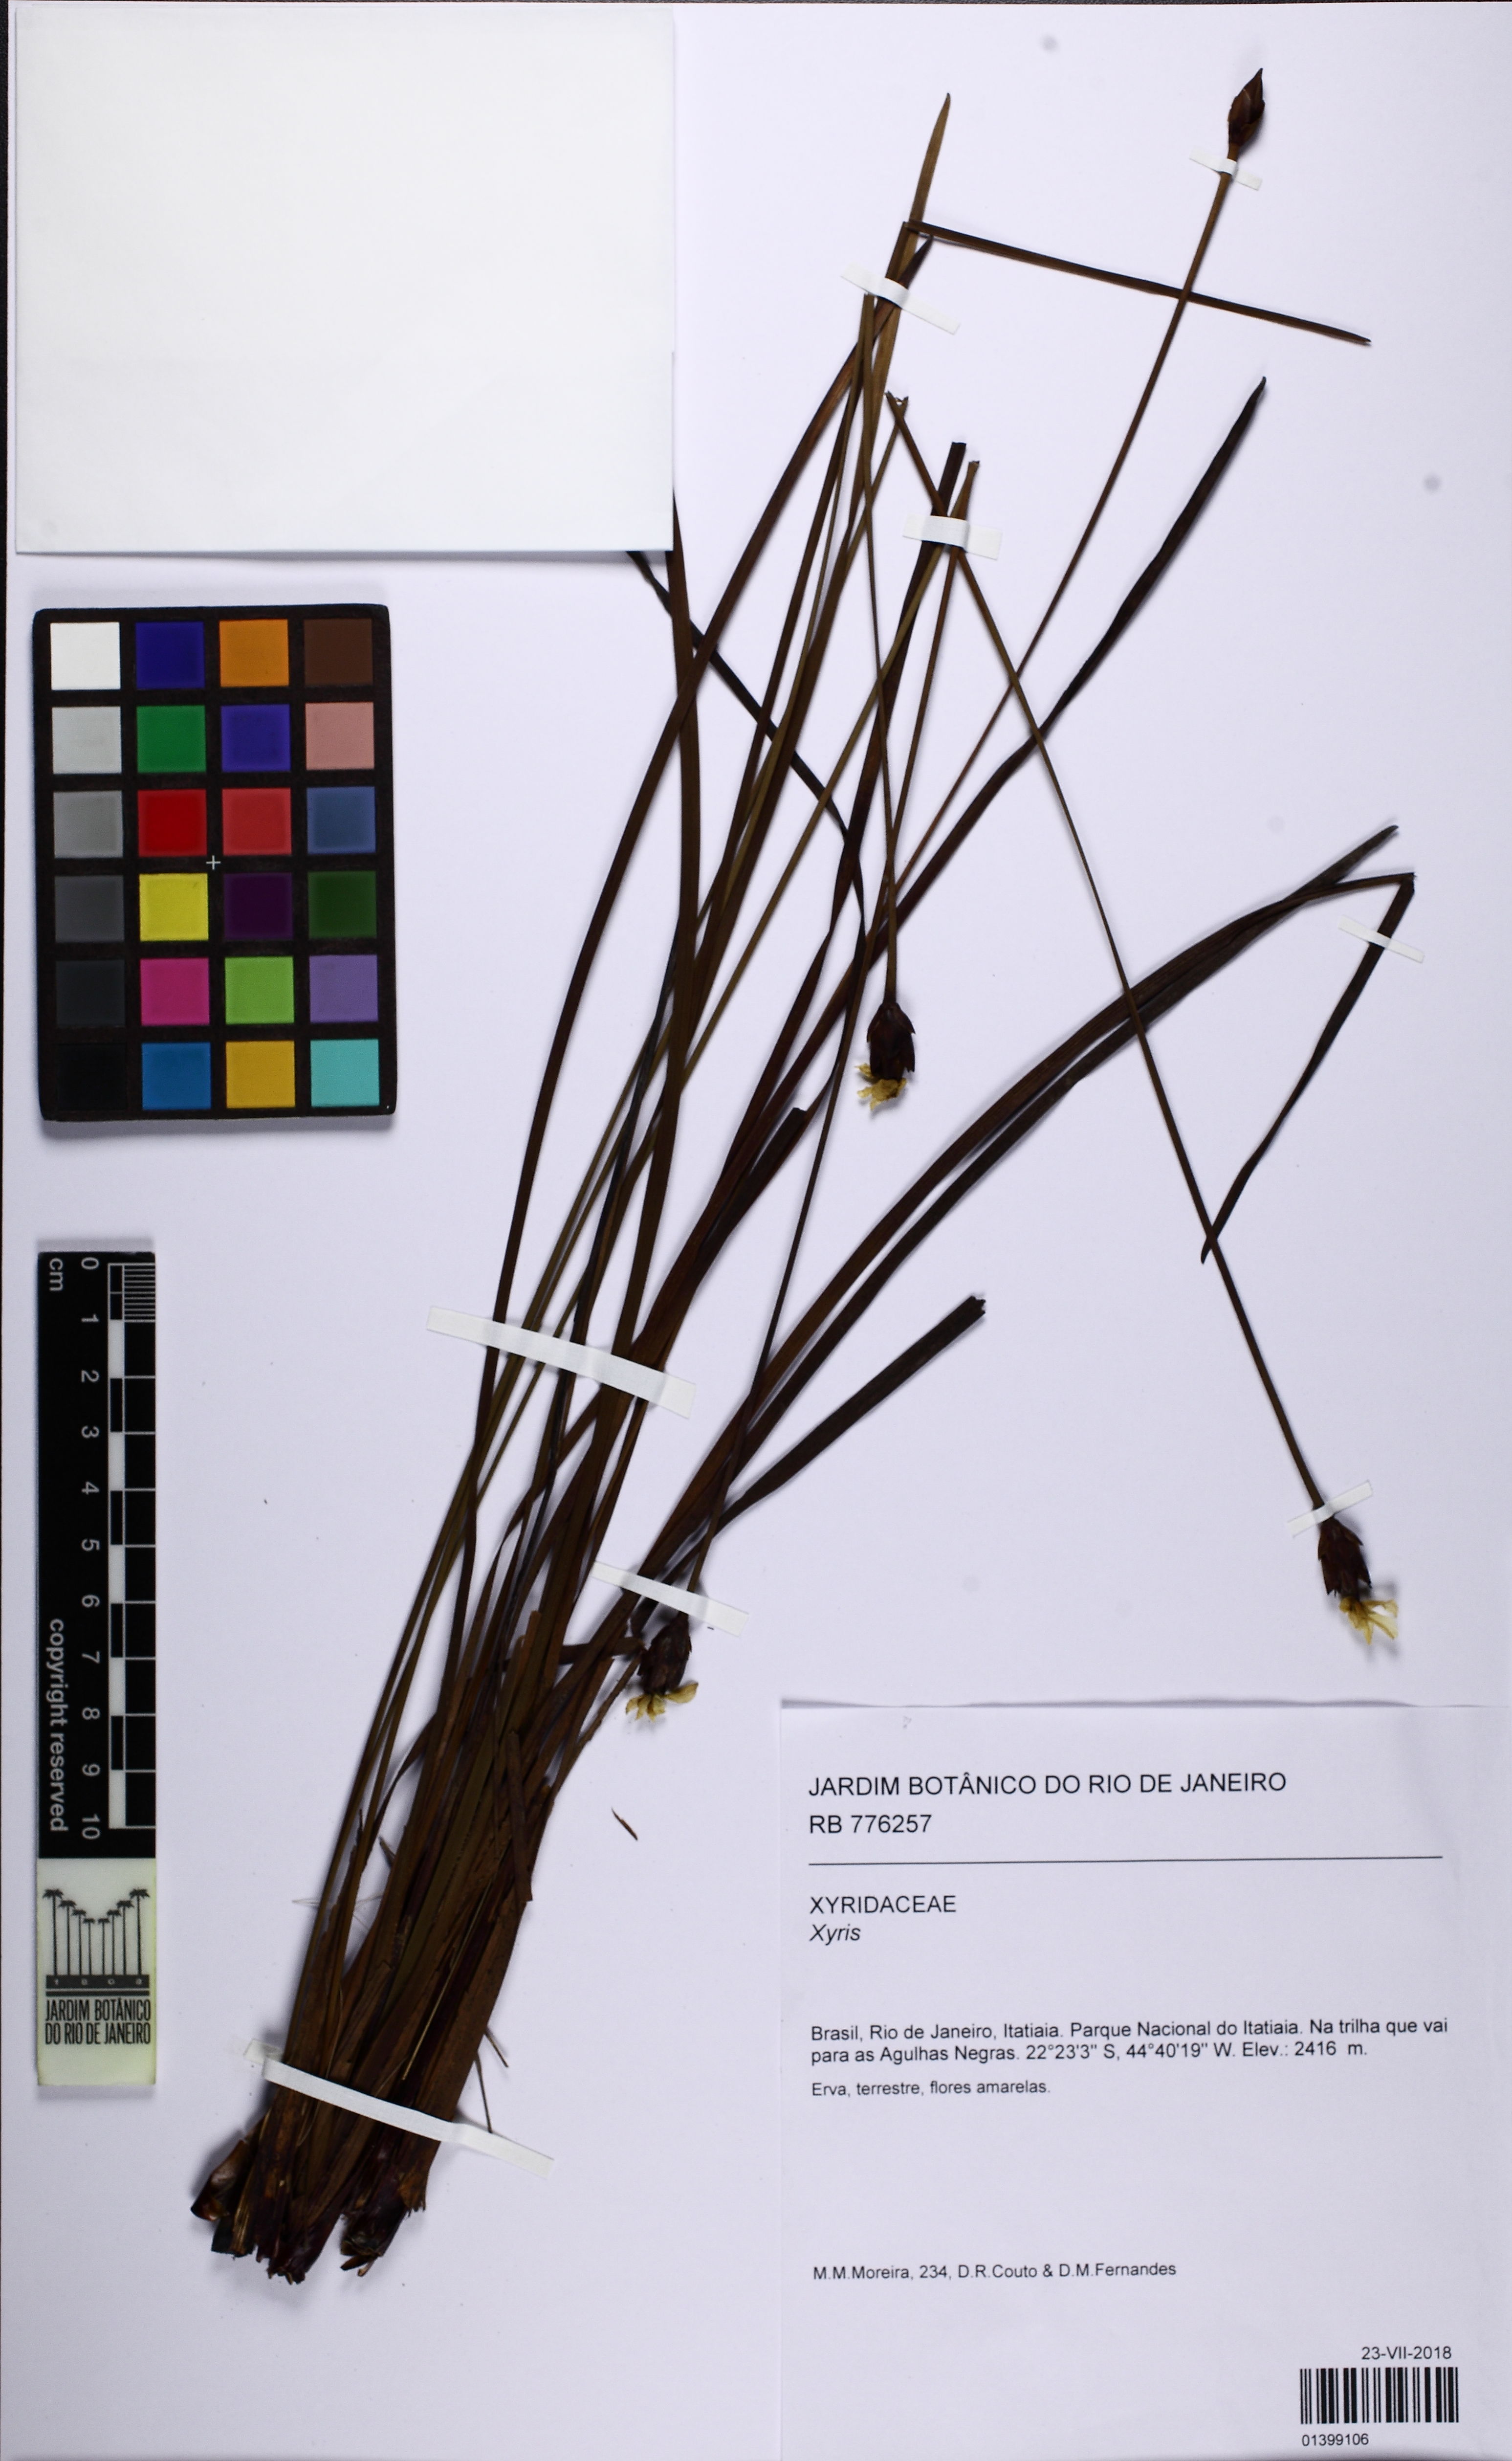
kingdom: Plantae
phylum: Tracheophyta
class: Liliopsida
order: Poales
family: Xyridaceae
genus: Xyris
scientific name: Xyris
